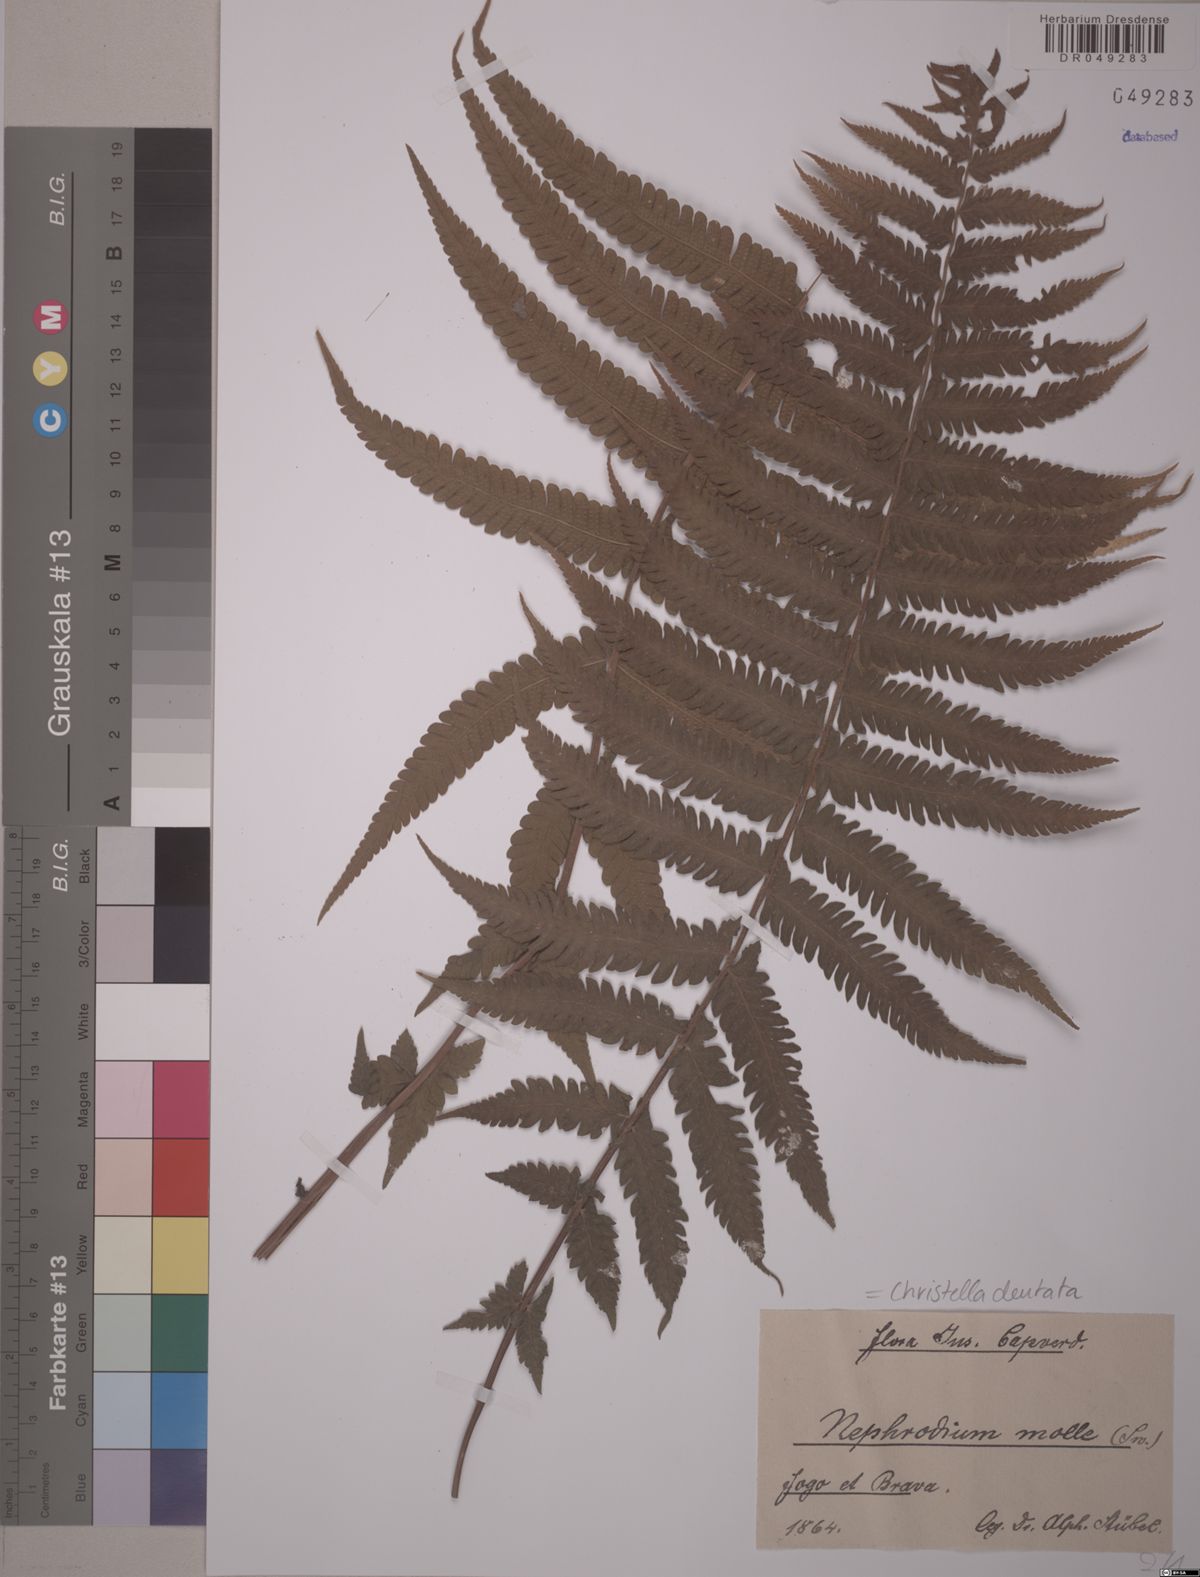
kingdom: Plantae
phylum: Tracheophyta
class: Polypodiopsida
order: Polypodiales
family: Thelypteridaceae
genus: Christella
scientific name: Christella dentata
